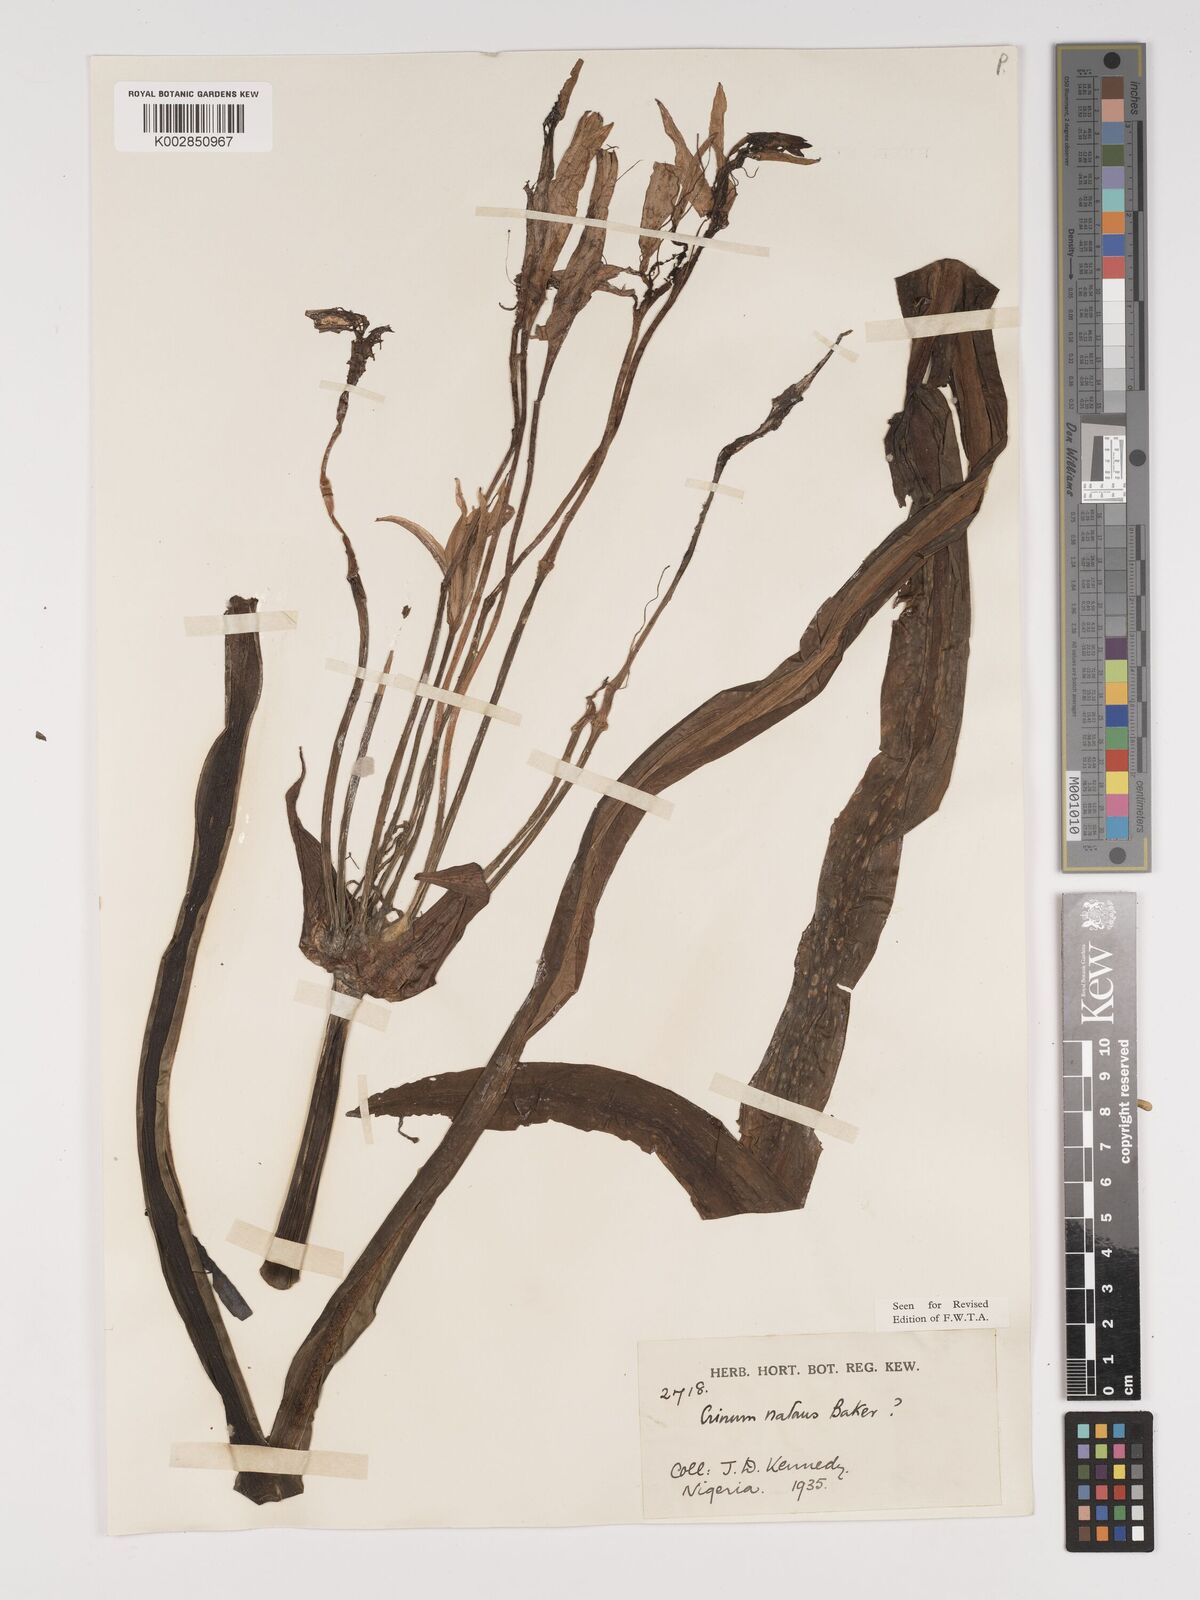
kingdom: Plantae
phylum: Tracheophyta
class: Liliopsida
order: Asparagales
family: Amaryllidaceae
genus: Crinum
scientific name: Crinum natans
